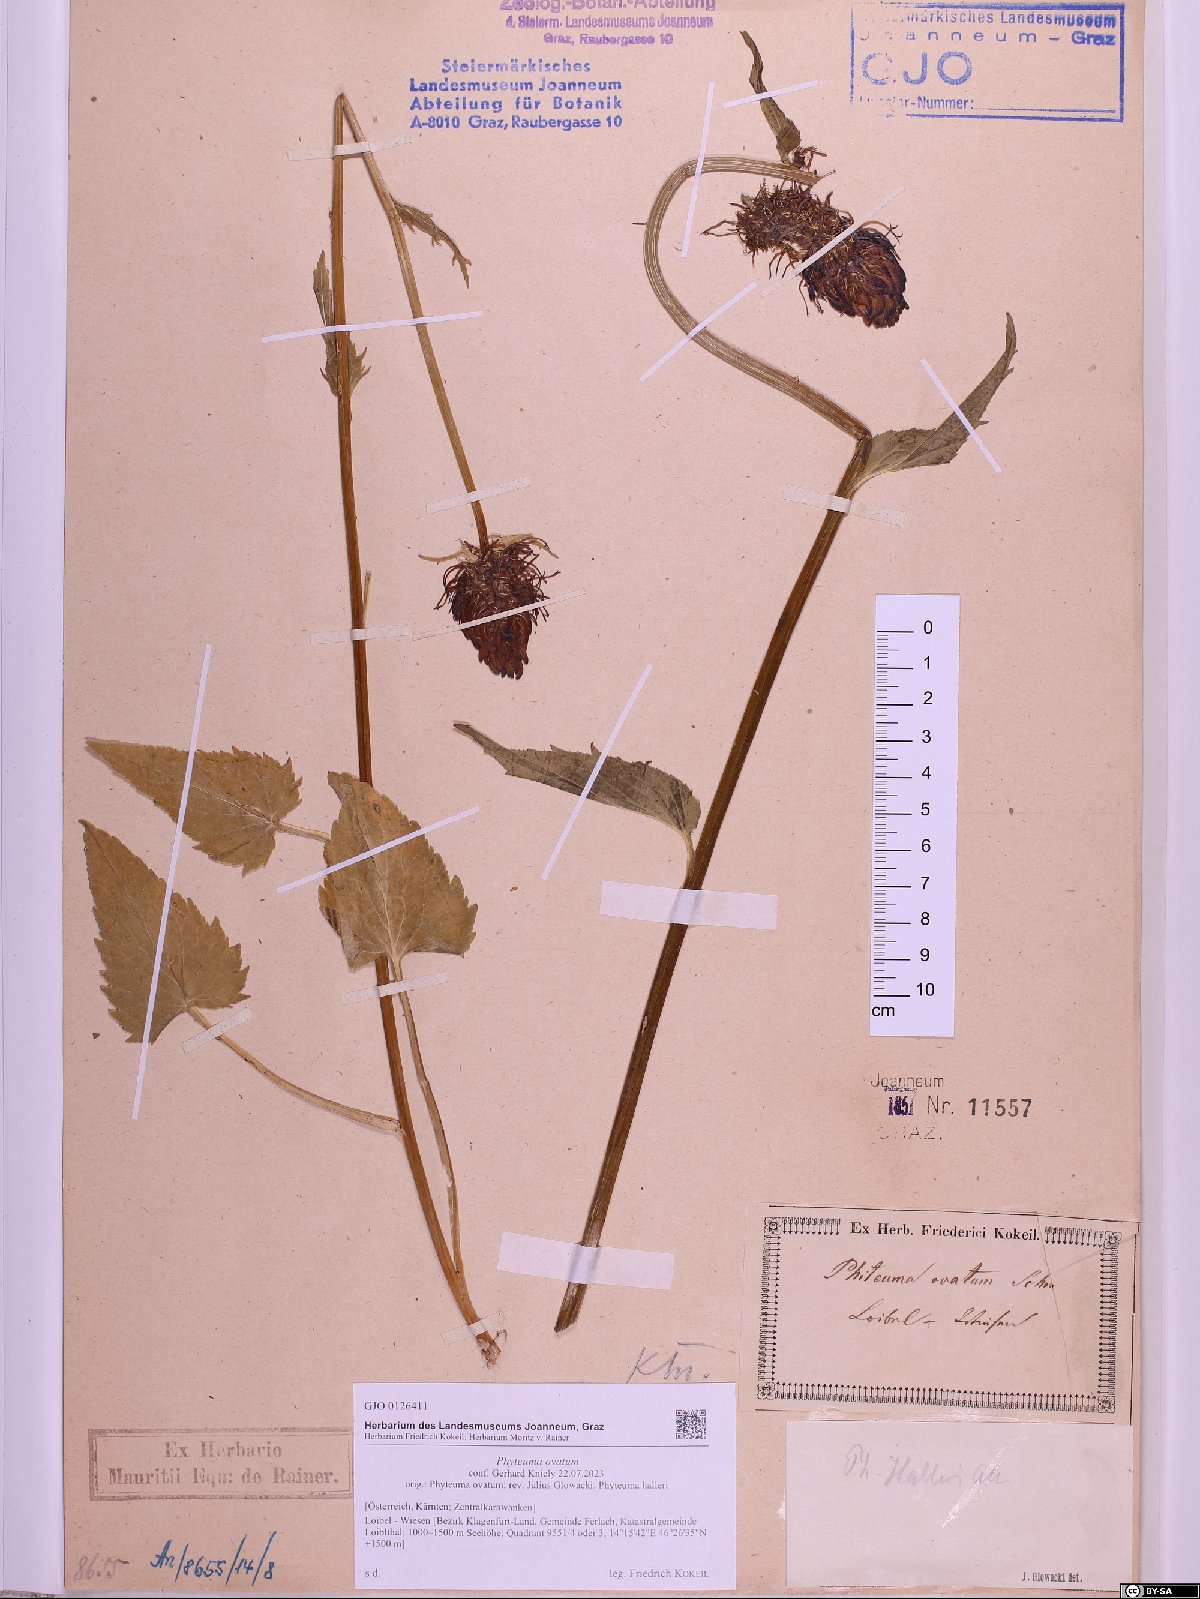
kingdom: Plantae
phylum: Tracheophyta
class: Magnoliopsida
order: Asterales
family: Campanulaceae
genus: Phyteuma
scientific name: Phyteuma ovatum
